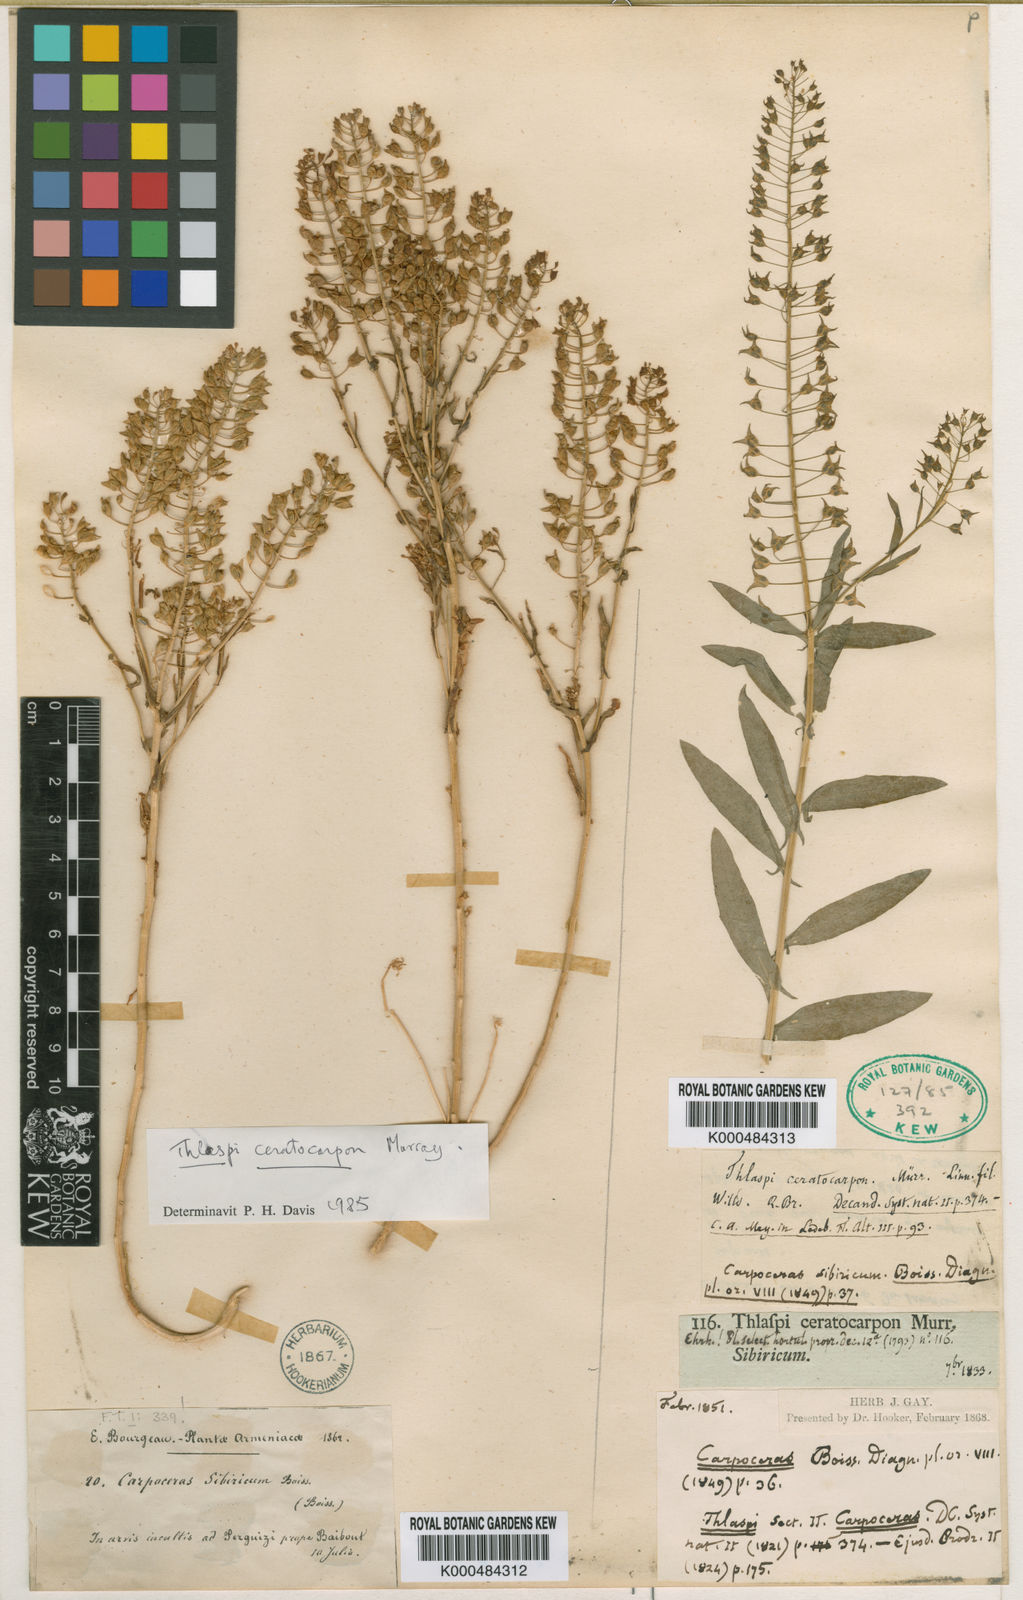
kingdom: Plantae
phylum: Tracheophyta
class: Magnoliopsida
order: Brassicales
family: Brassicaceae
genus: Thlaspi
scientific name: Thlaspi ceratocarpum
